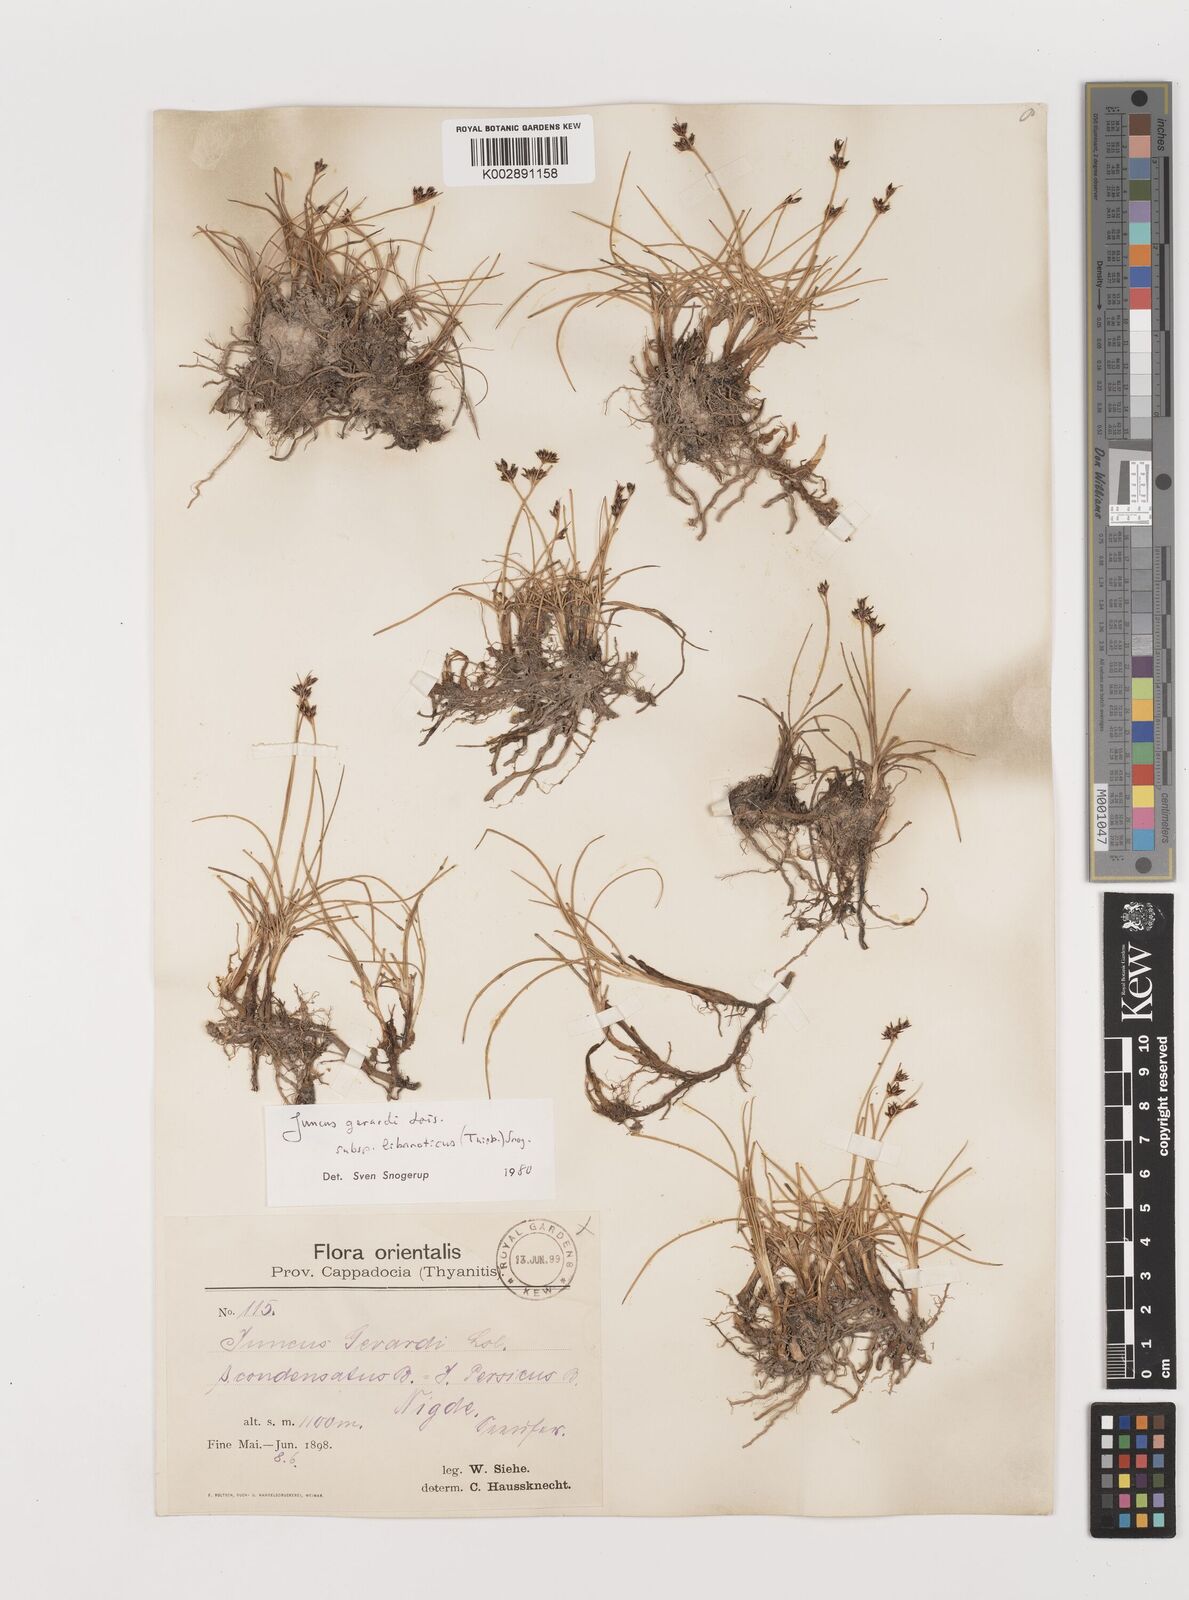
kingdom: Plantae
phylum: Tracheophyta
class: Liliopsida
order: Poales
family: Juncaceae
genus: Juncus
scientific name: Juncus persicus
